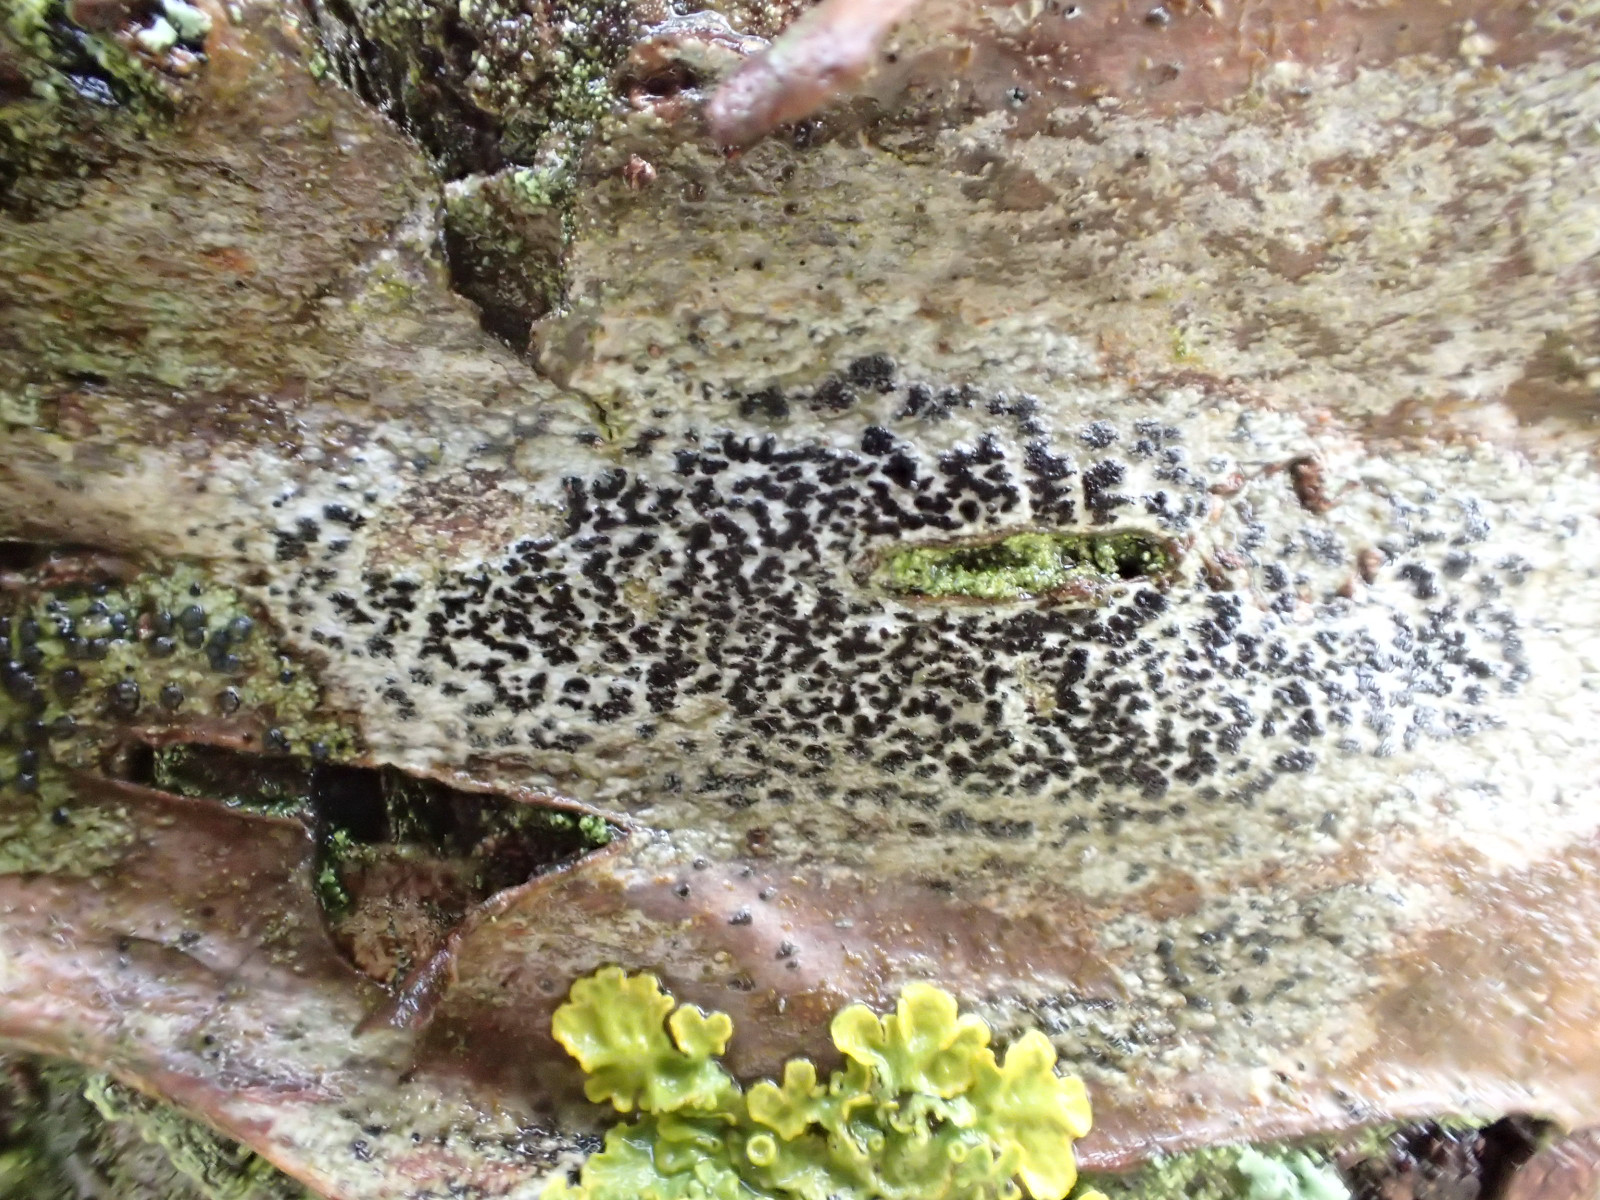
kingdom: Fungi
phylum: Ascomycota
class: Arthoniomycetes
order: Arthoniales
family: Arthoniaceae
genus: Arthonia
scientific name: Arthonia radiata
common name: stjerne-pletlav
